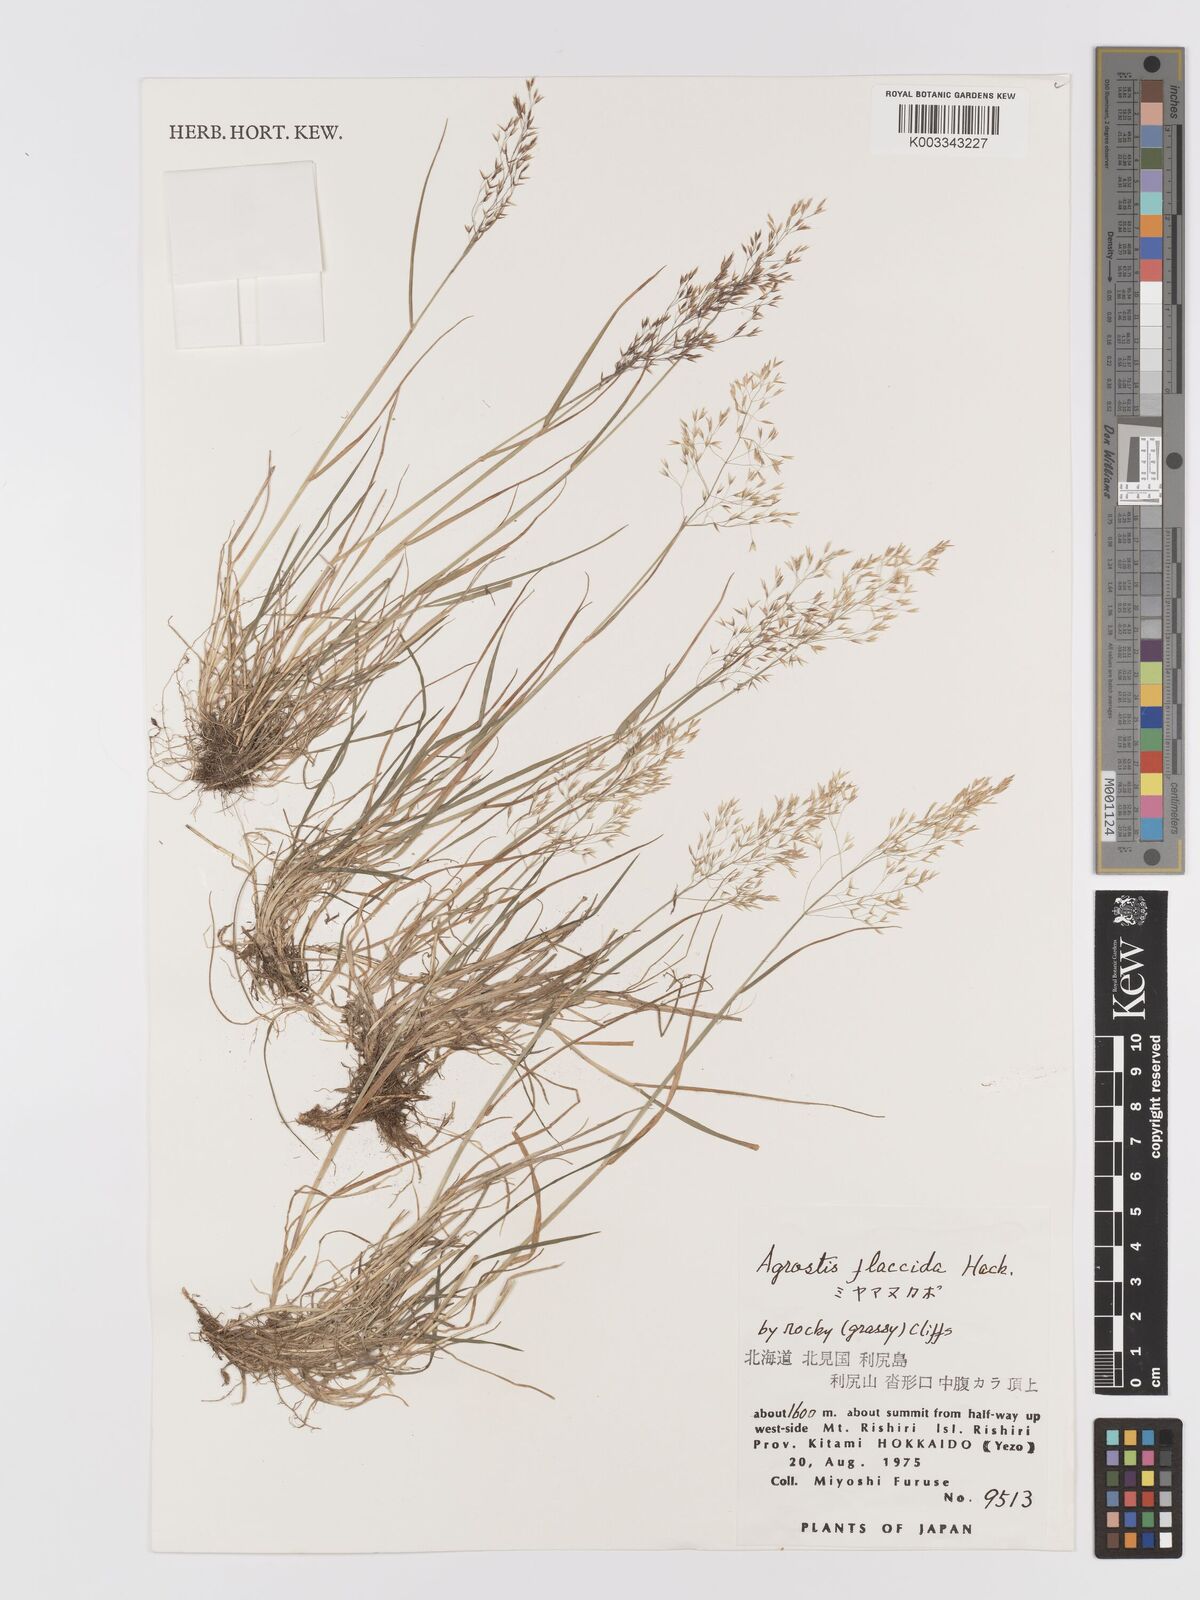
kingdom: Plantae
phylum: Tracheophyta
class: Liliopsida
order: Poales
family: Poaceae
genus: Agrostis
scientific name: Agrostis flaccida
